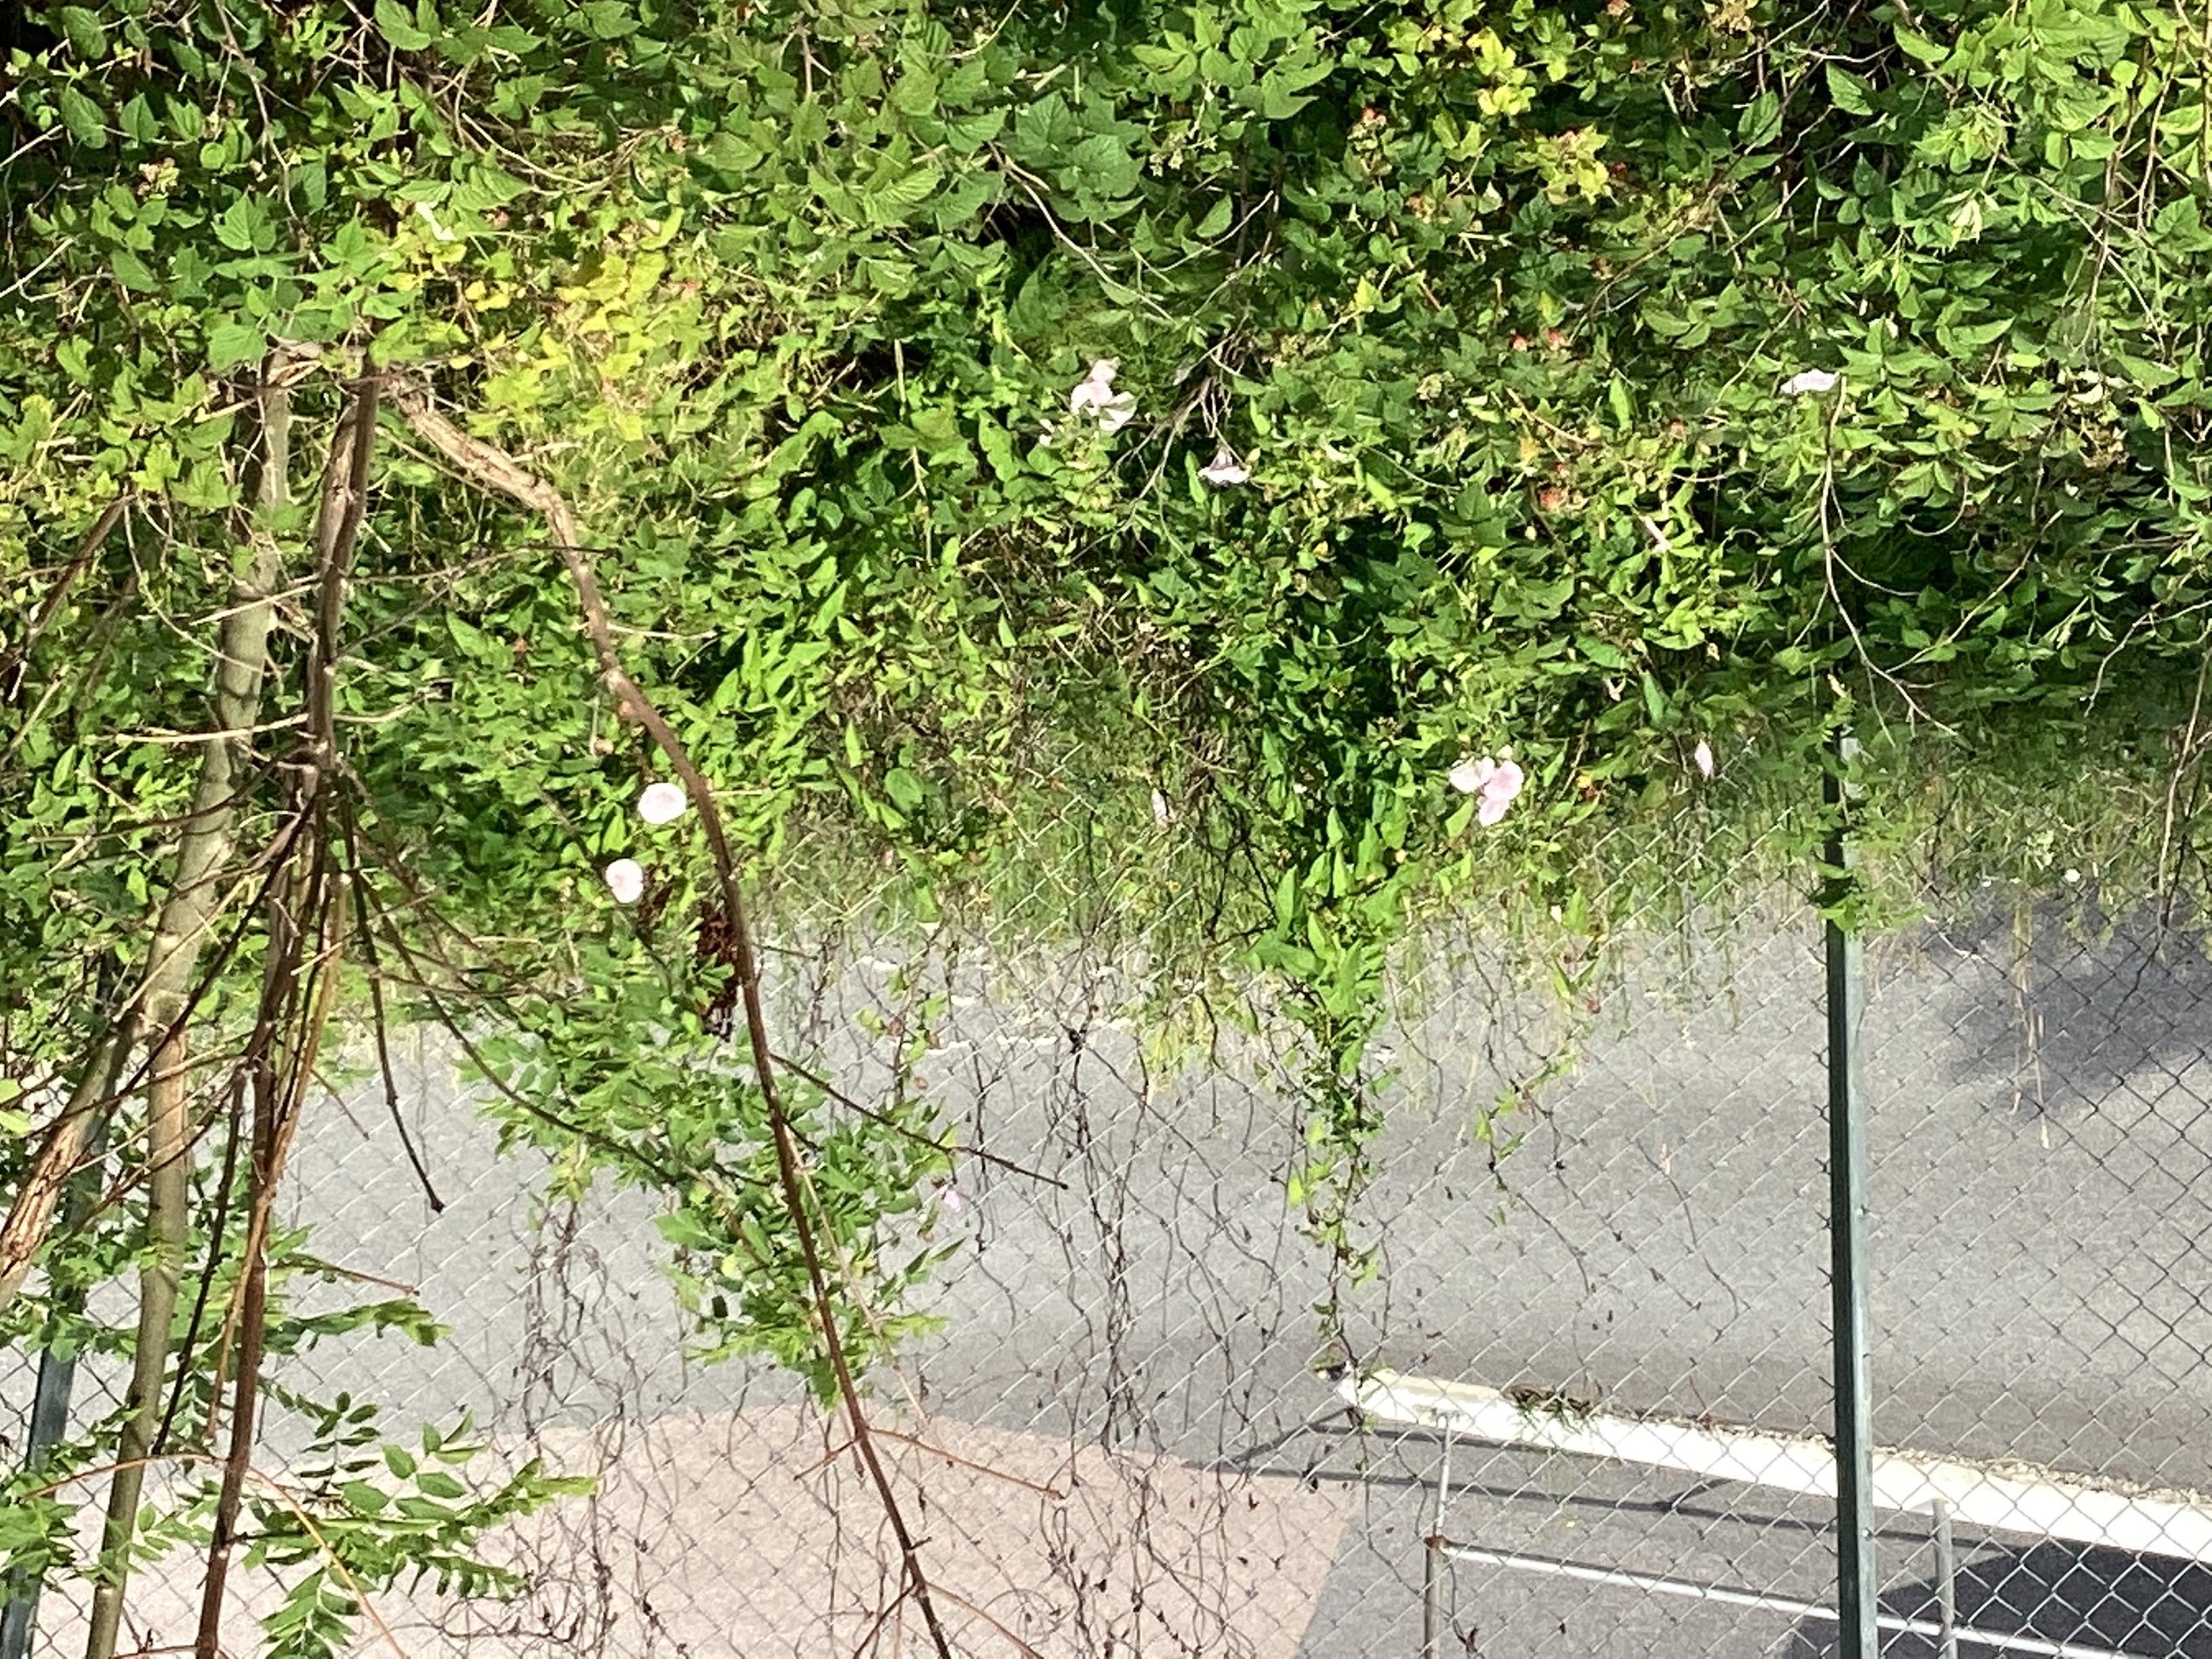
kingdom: Plantae
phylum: Tracheophyta
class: Magnoliopsida
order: Solanales
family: Convolvulaceae
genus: Calystegia
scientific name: Calystegia sepium
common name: prydstrandvindel
